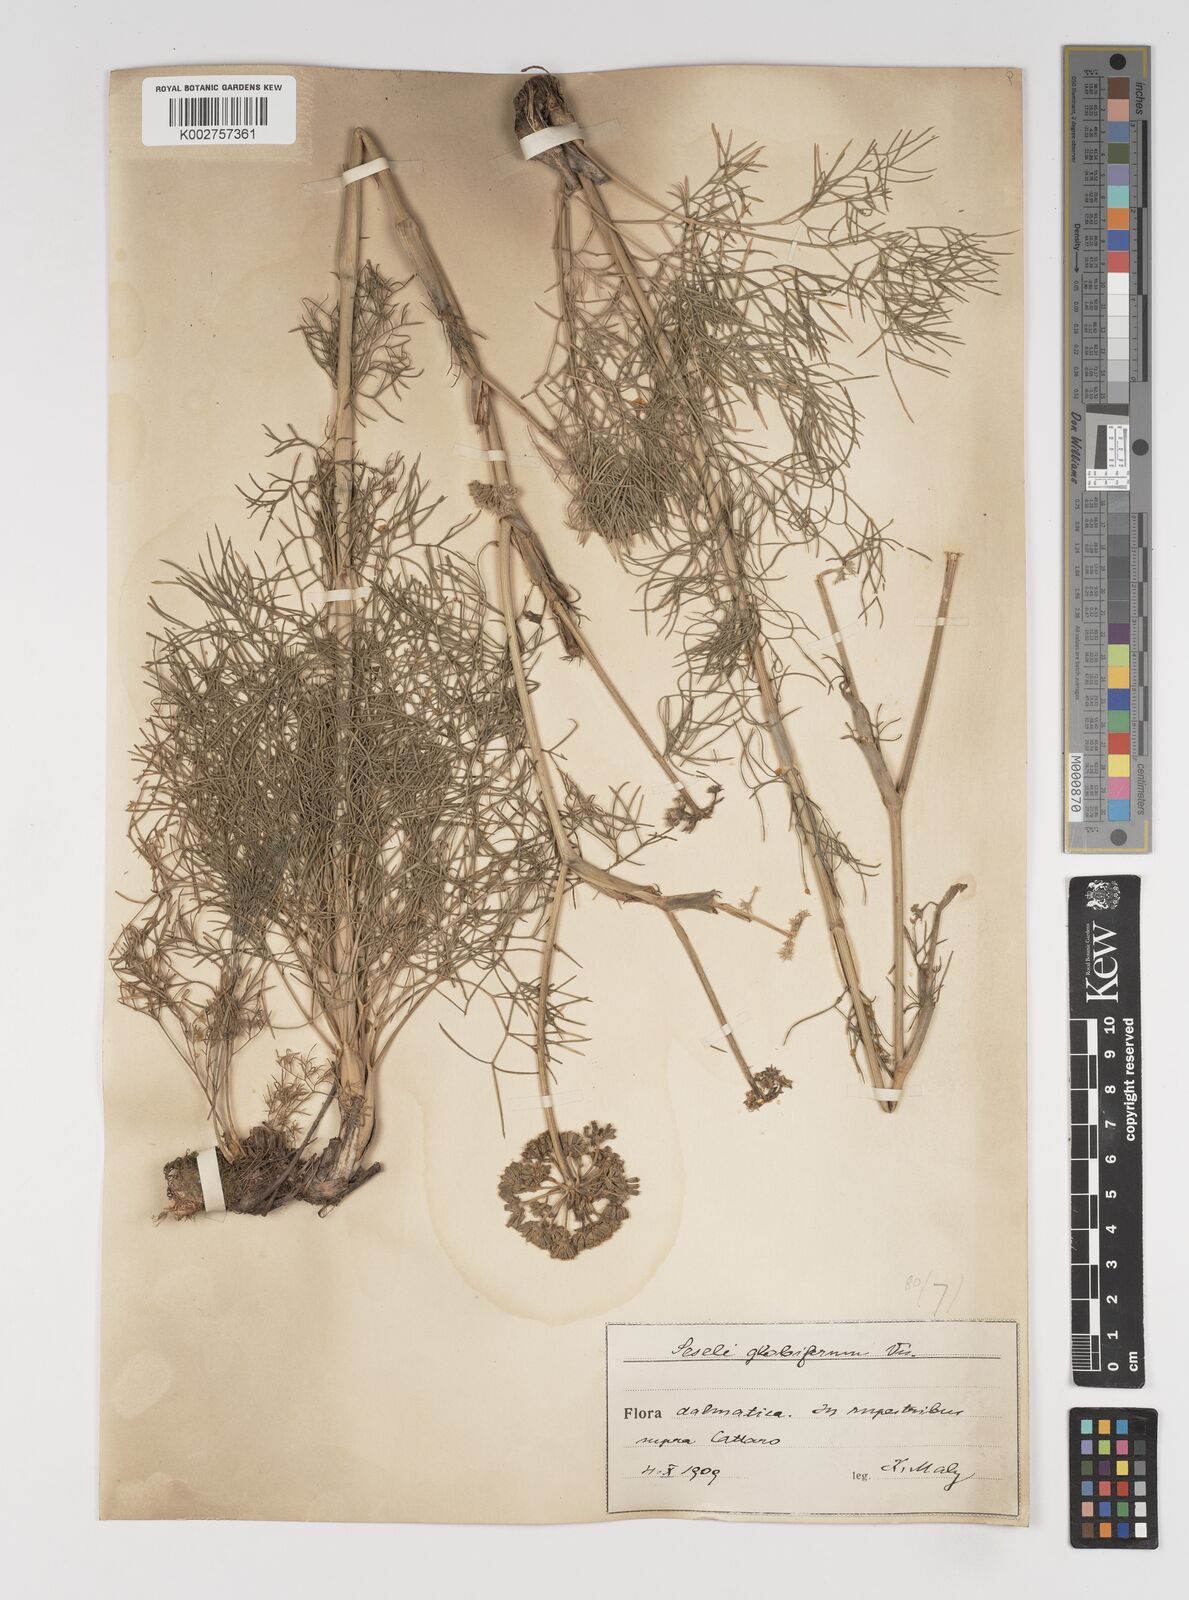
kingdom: Plantae
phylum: Tracheophyta
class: Magnoliopsida
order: Apiales
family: Apiaceae
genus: Seseli
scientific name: Seseli globiferum
